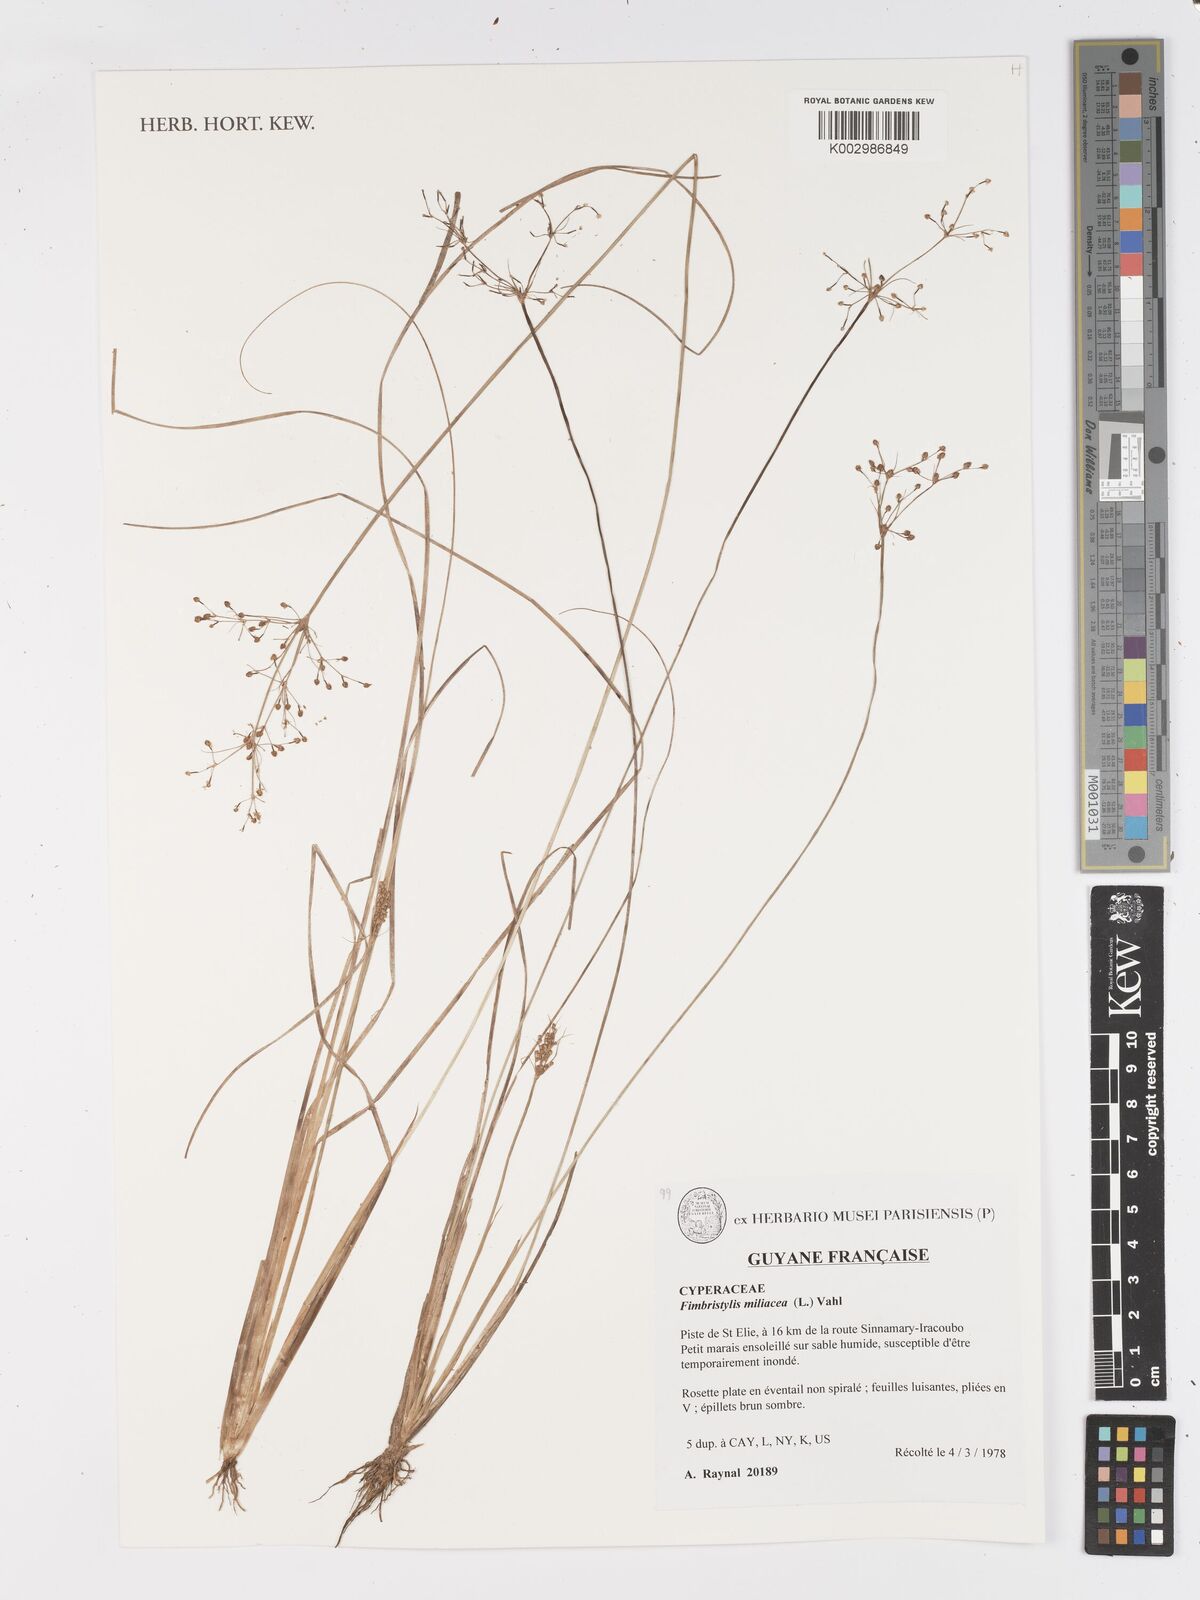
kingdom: Plantae
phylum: Tracheophyta
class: Liliopsida
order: Poales
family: Cyperaceae
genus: Fimbristylis
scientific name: Fimbristylis littoralis
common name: Fimbry
